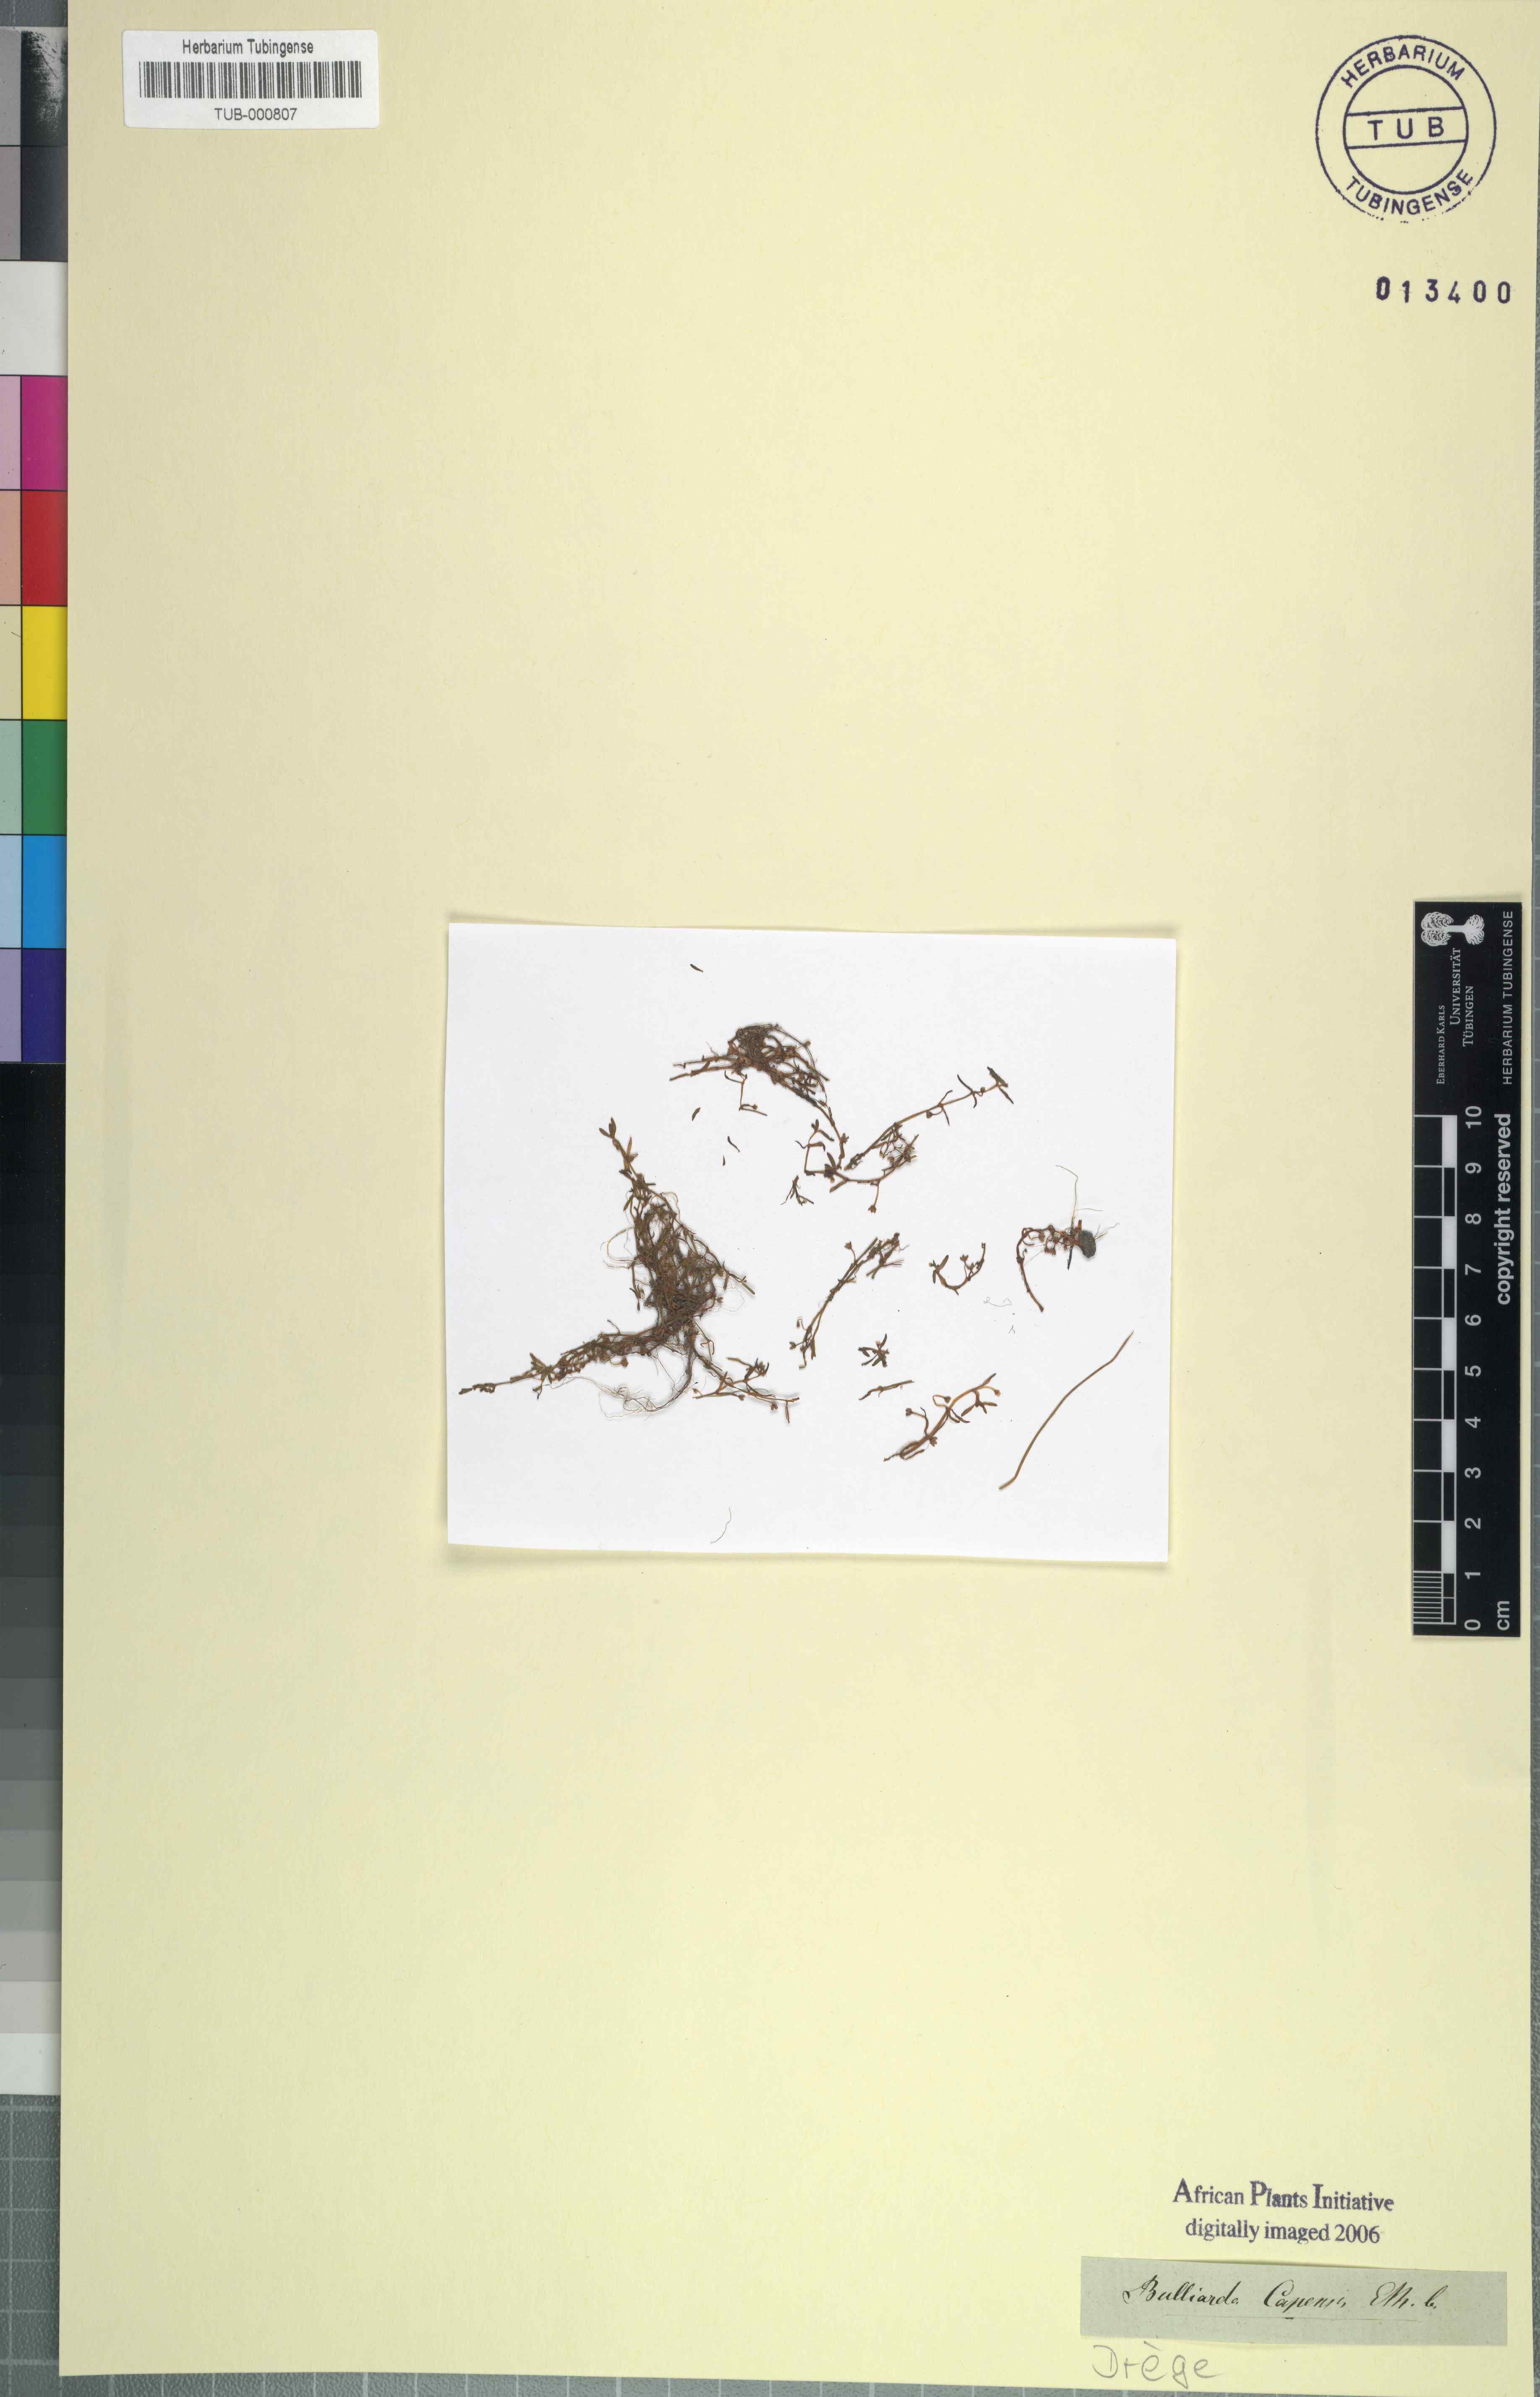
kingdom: Plantae
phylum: Tracheophyta
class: Magnoliopsida
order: Saxifragales
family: Crassulaceae
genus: Crassula
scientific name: Crassula natans
